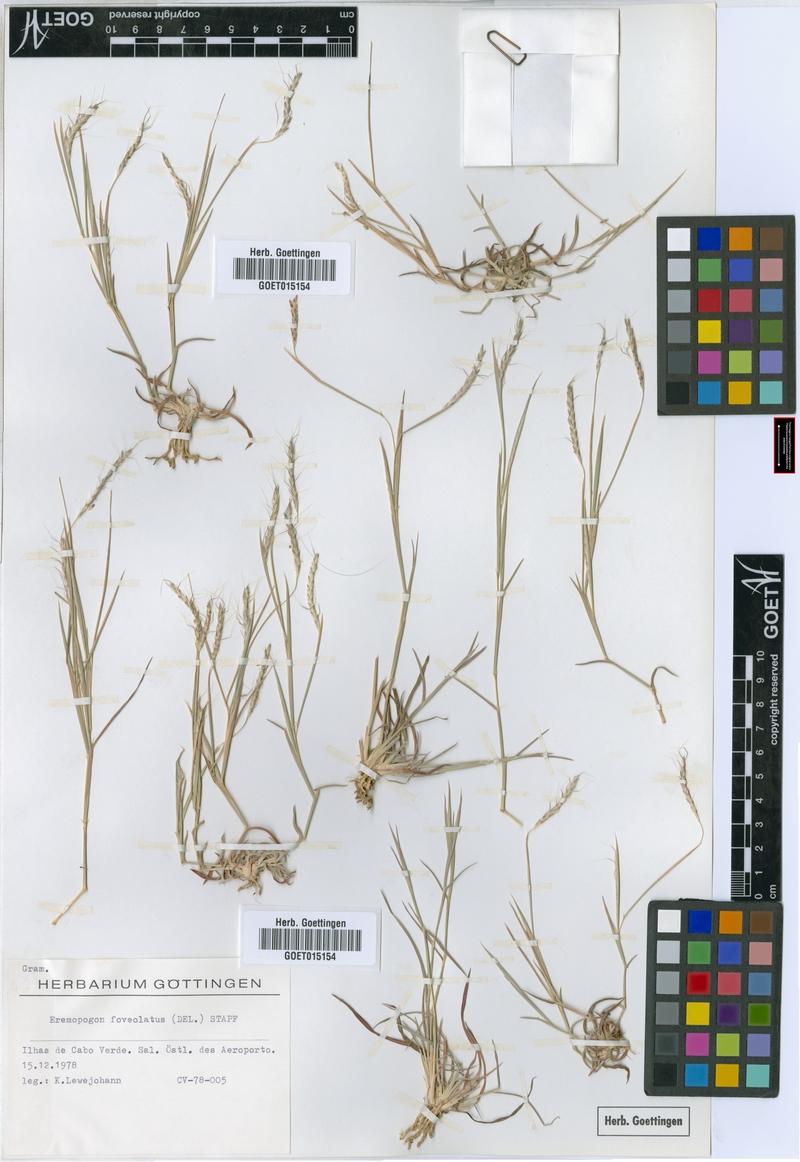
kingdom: Plantae
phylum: Tracheophyta
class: Liliopsida
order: Poales
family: Poaceae
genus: Dichanthium
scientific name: Dichanthium foveolatum
